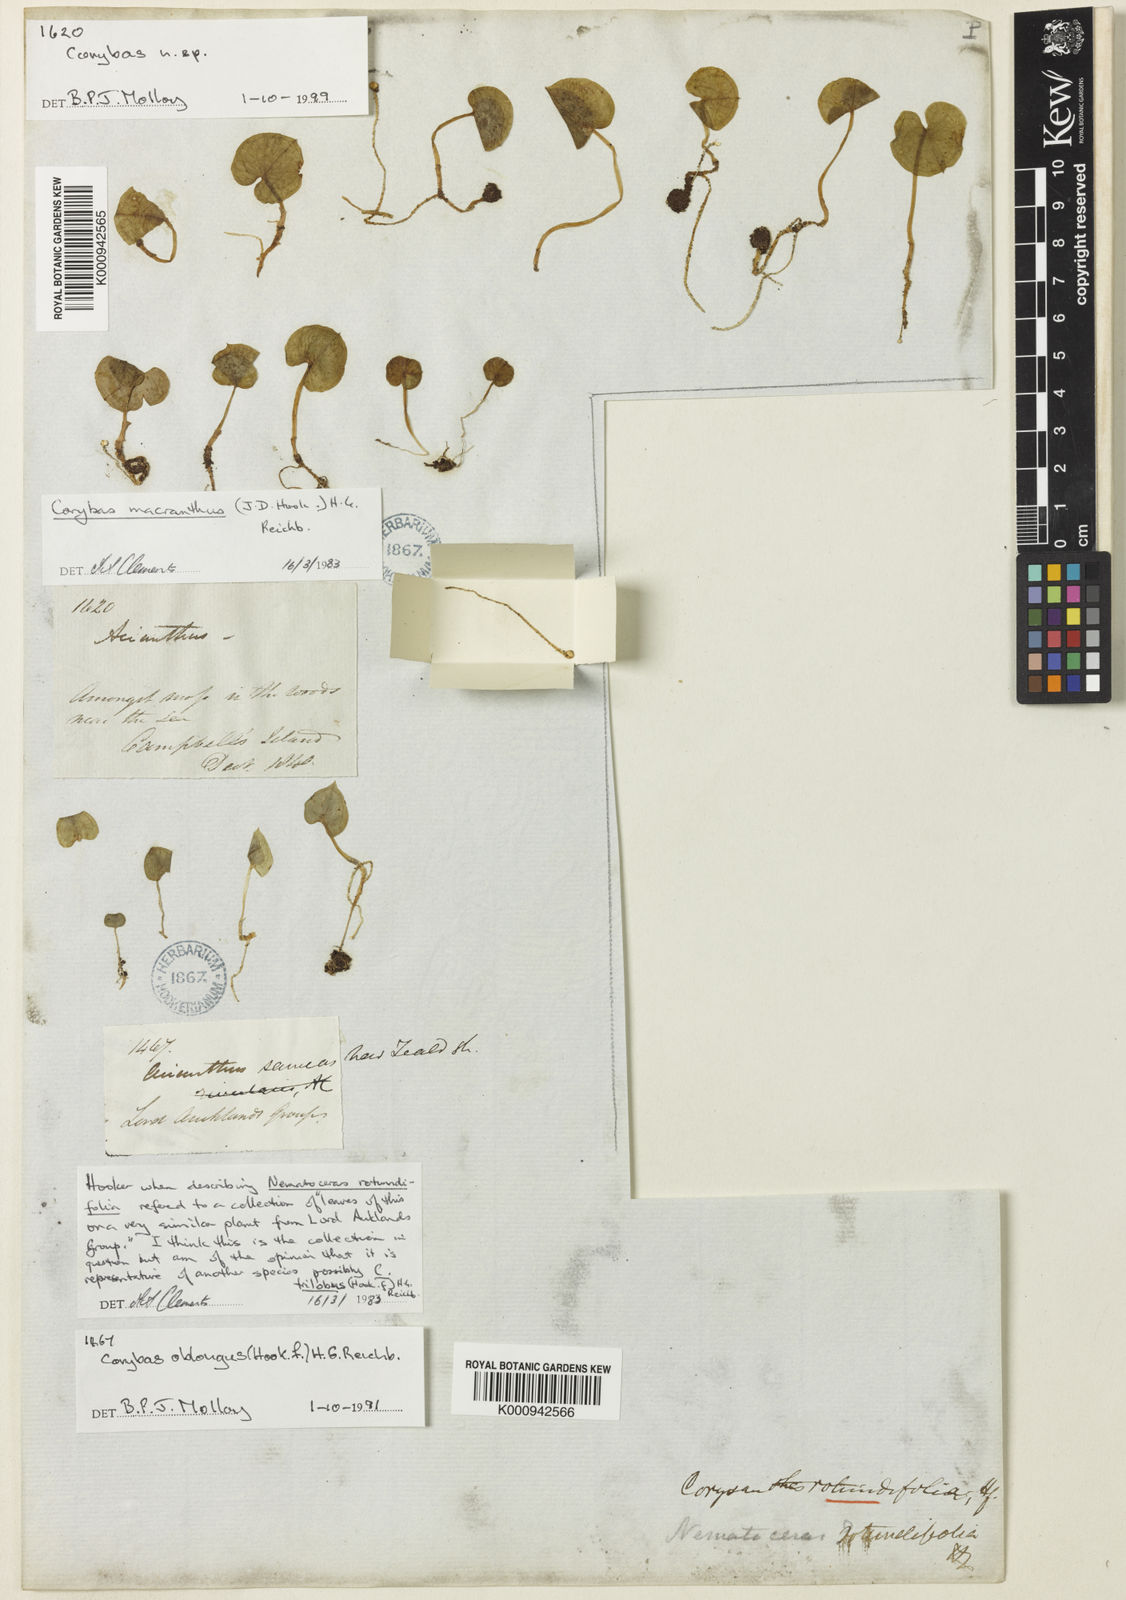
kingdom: Plantae
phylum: Tracheophyta
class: Liliopsida
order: Asparagales
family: Orchidaceae
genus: Corybas
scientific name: Corybas rotundifolius
